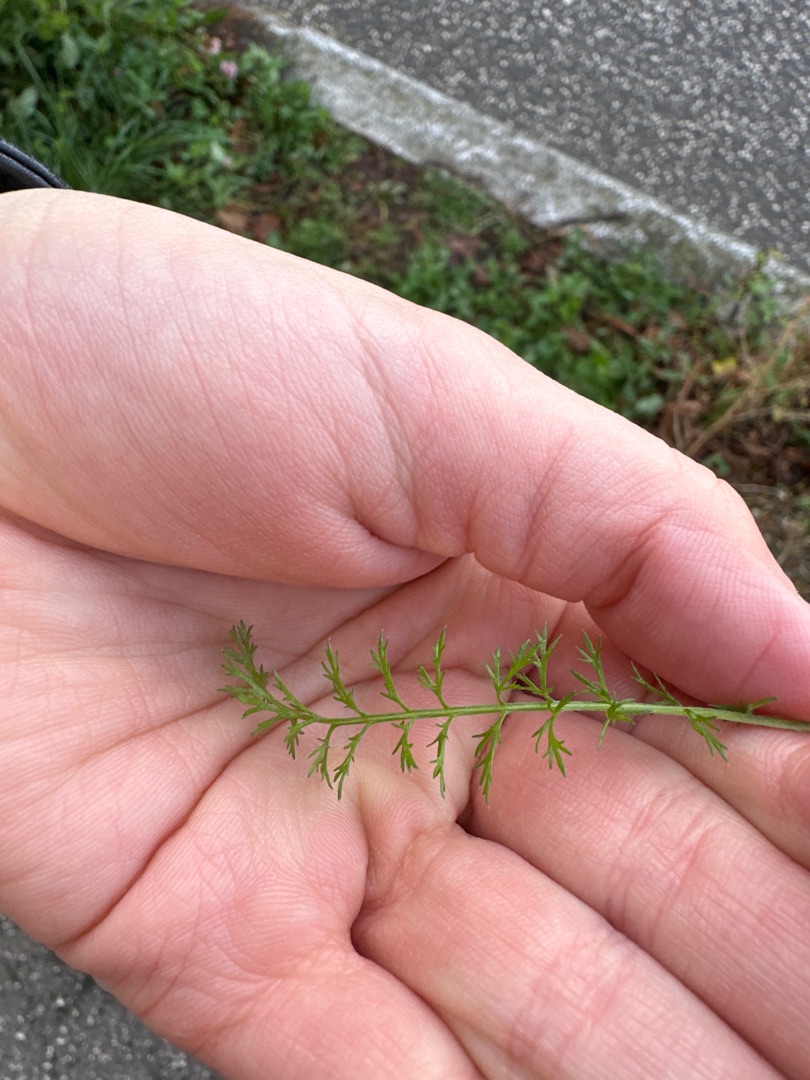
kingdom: Plantae
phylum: Tracheophyta
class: Magnoliopsida
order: Asterales
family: Asteraceae
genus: Achillea
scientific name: Achillea millefolium
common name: Almindelig røllike
